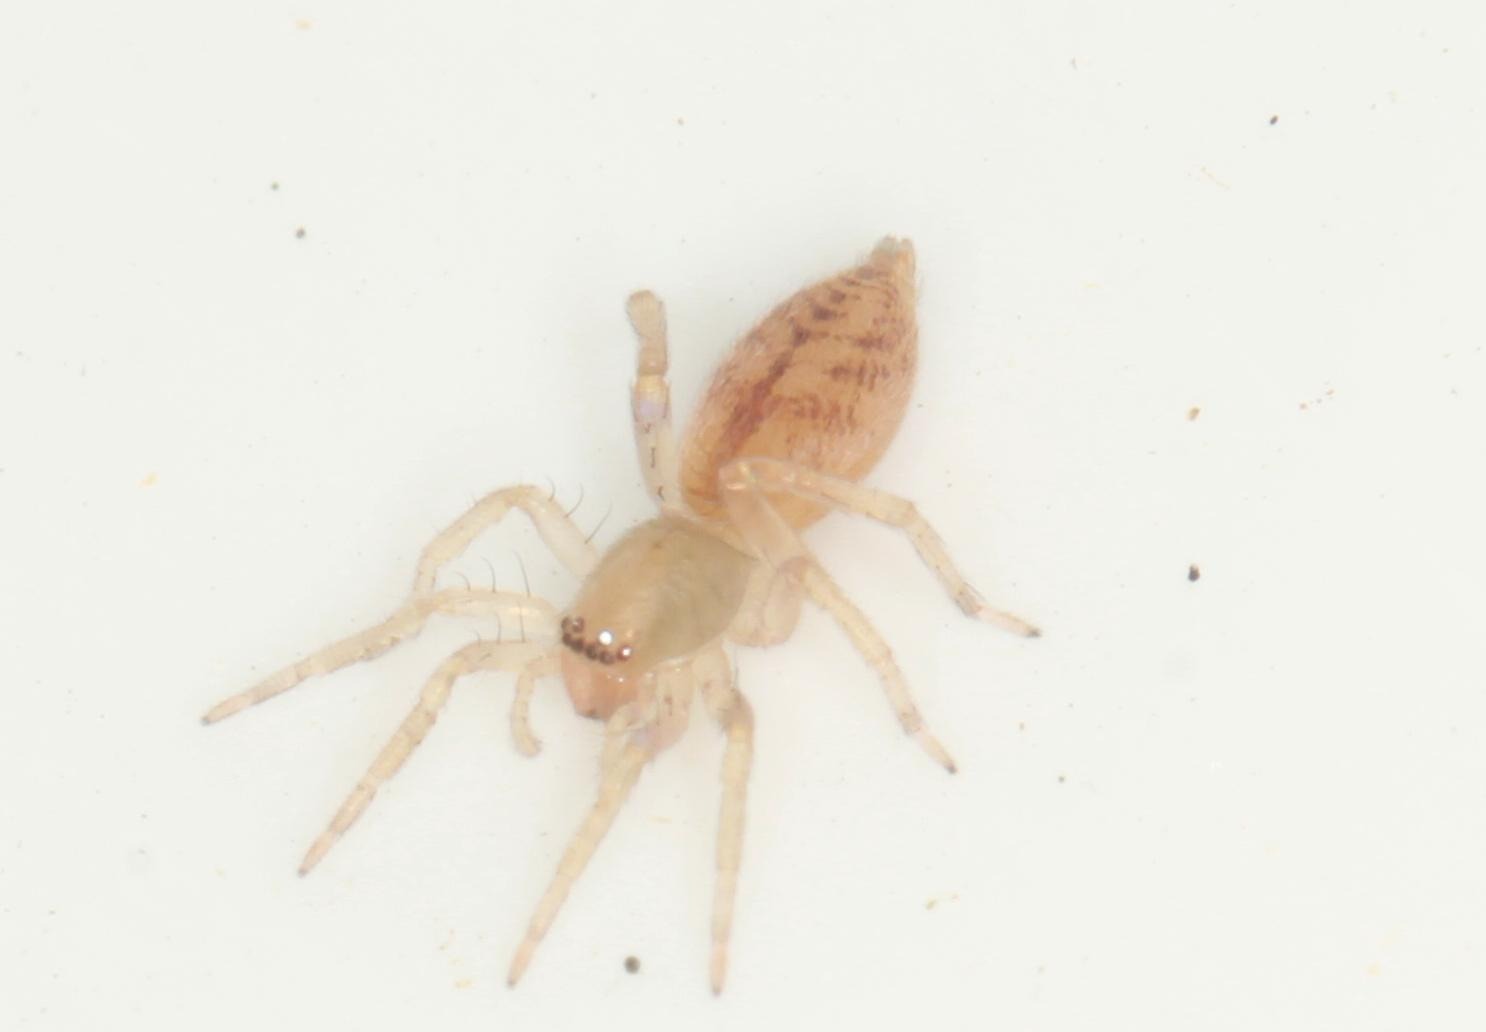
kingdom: Animalia
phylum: Arthropoda
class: Arachnida
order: Araneae
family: Clubionidae
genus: Clubiona
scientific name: Clubiona comta
